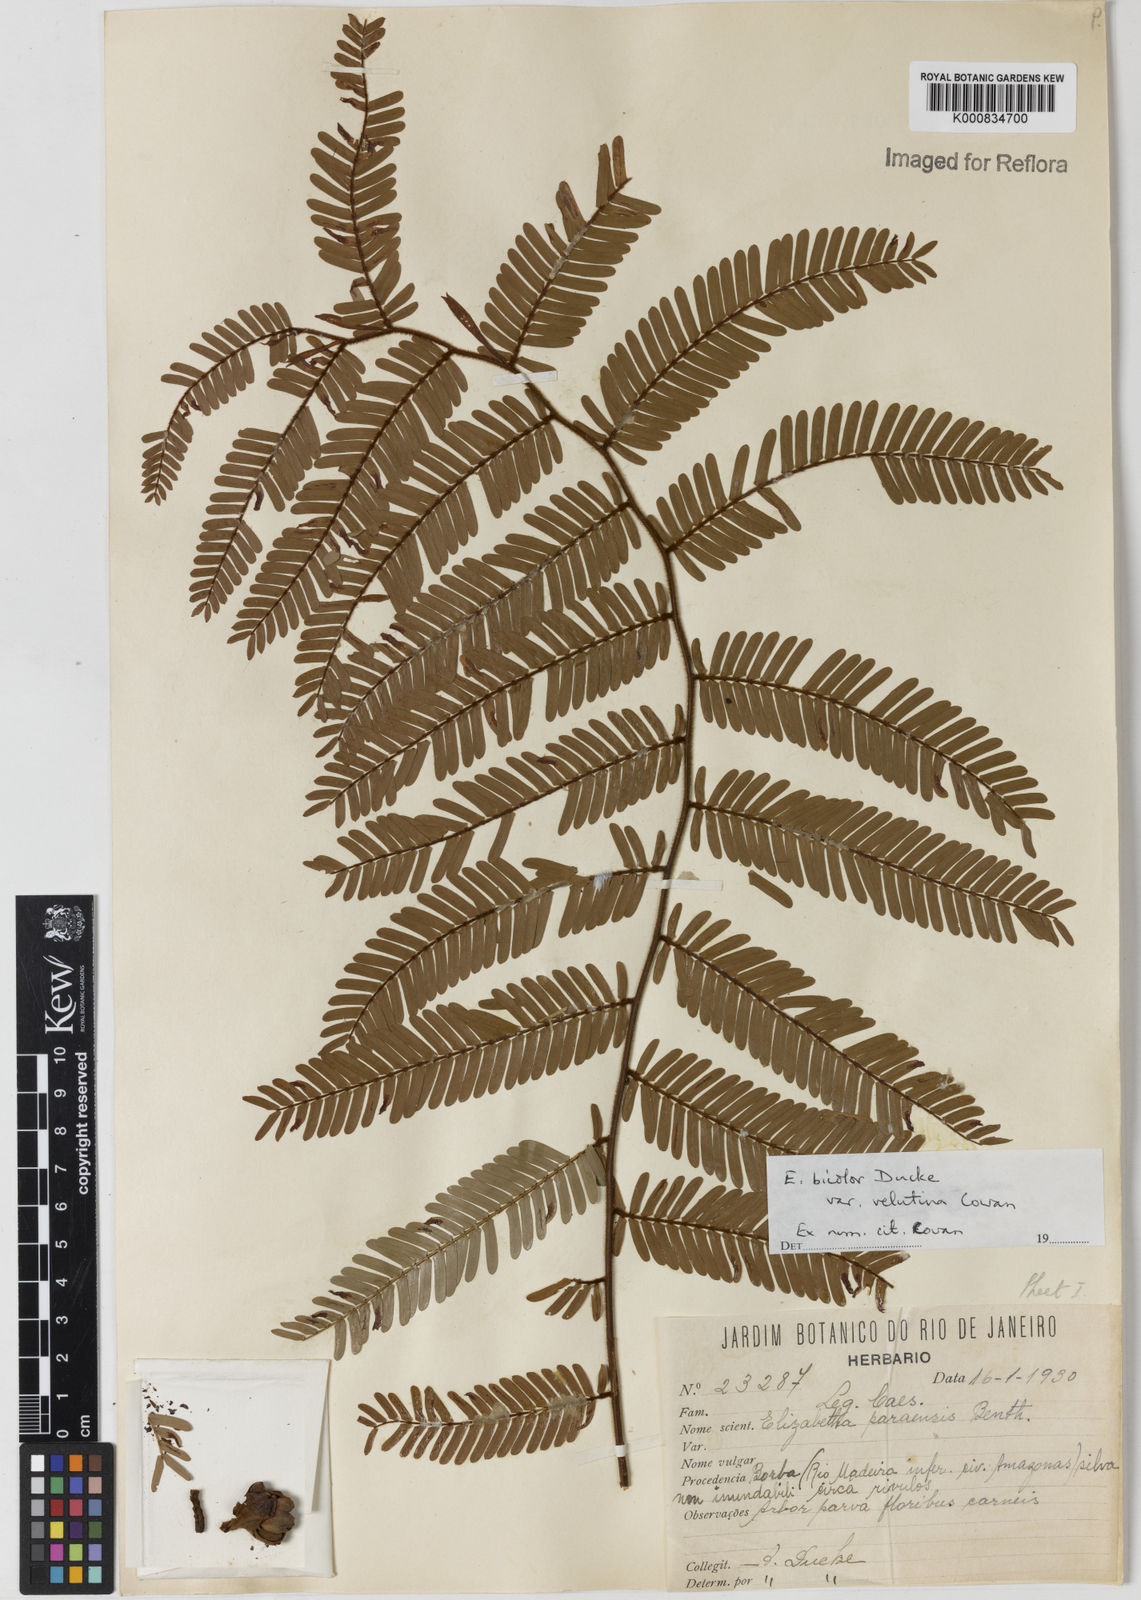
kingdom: Plantae
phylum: Tracheophyta
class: Magnoliopsida
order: Fabales
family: Fabaceae
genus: Paloue
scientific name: Paloue bicolor
